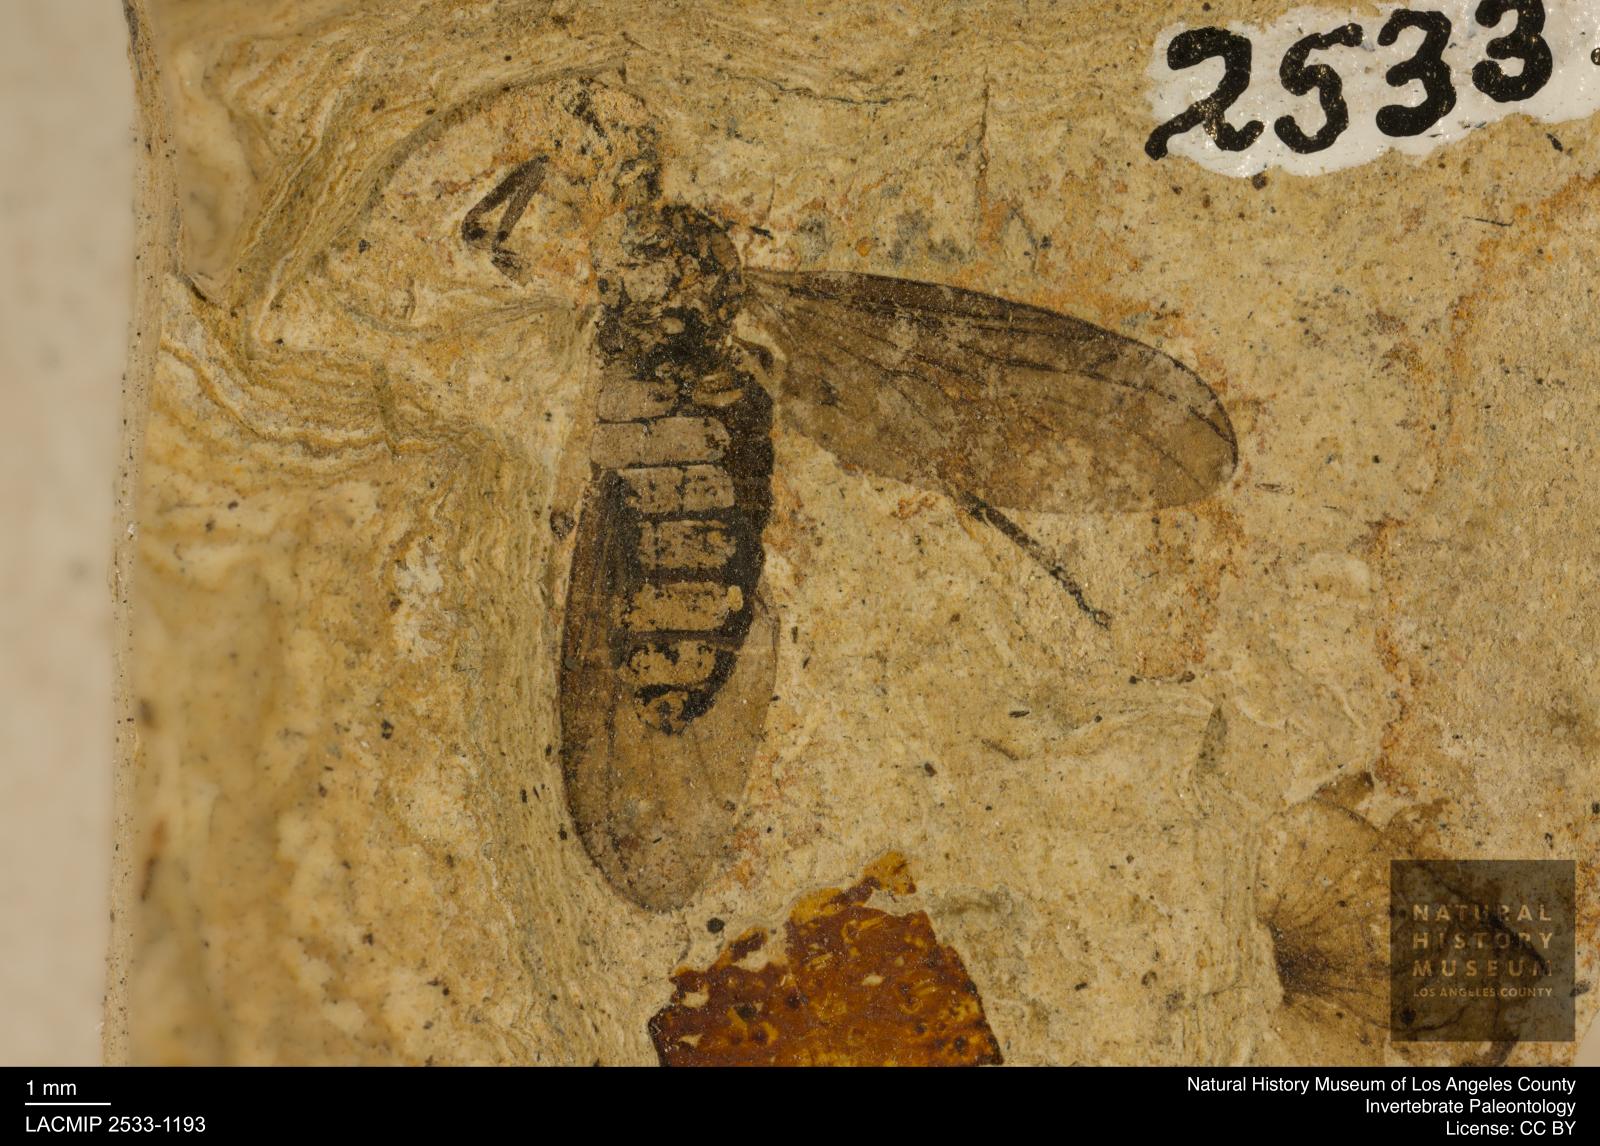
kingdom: Animalia
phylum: Arthropoda
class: Insecta
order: Diptera
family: Bibionidae
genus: Plecia
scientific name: Plecia stygia
